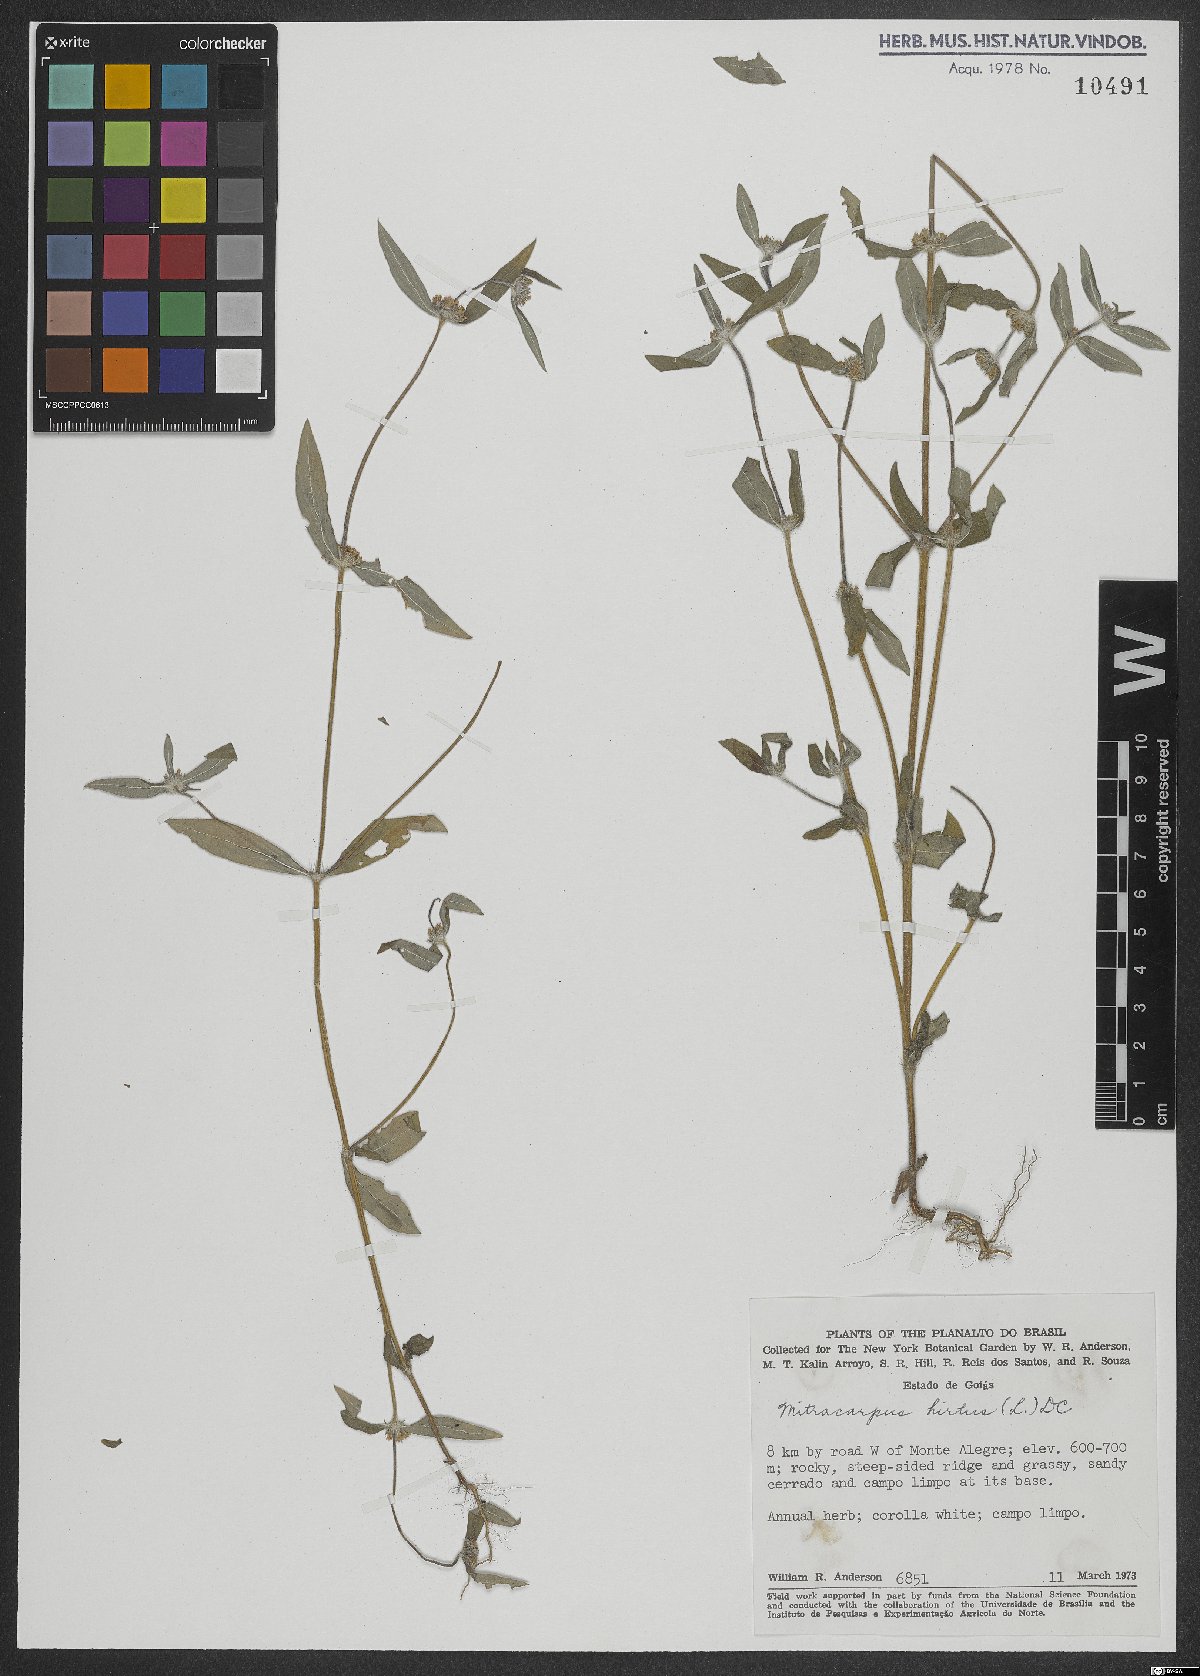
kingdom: Plantae
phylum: Tracheophyta
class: Magnoliopsida
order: Gentianales
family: Rubiaceae
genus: Mitracarpus
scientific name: Mitracarpus hirtus
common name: Tropical girdlepod
